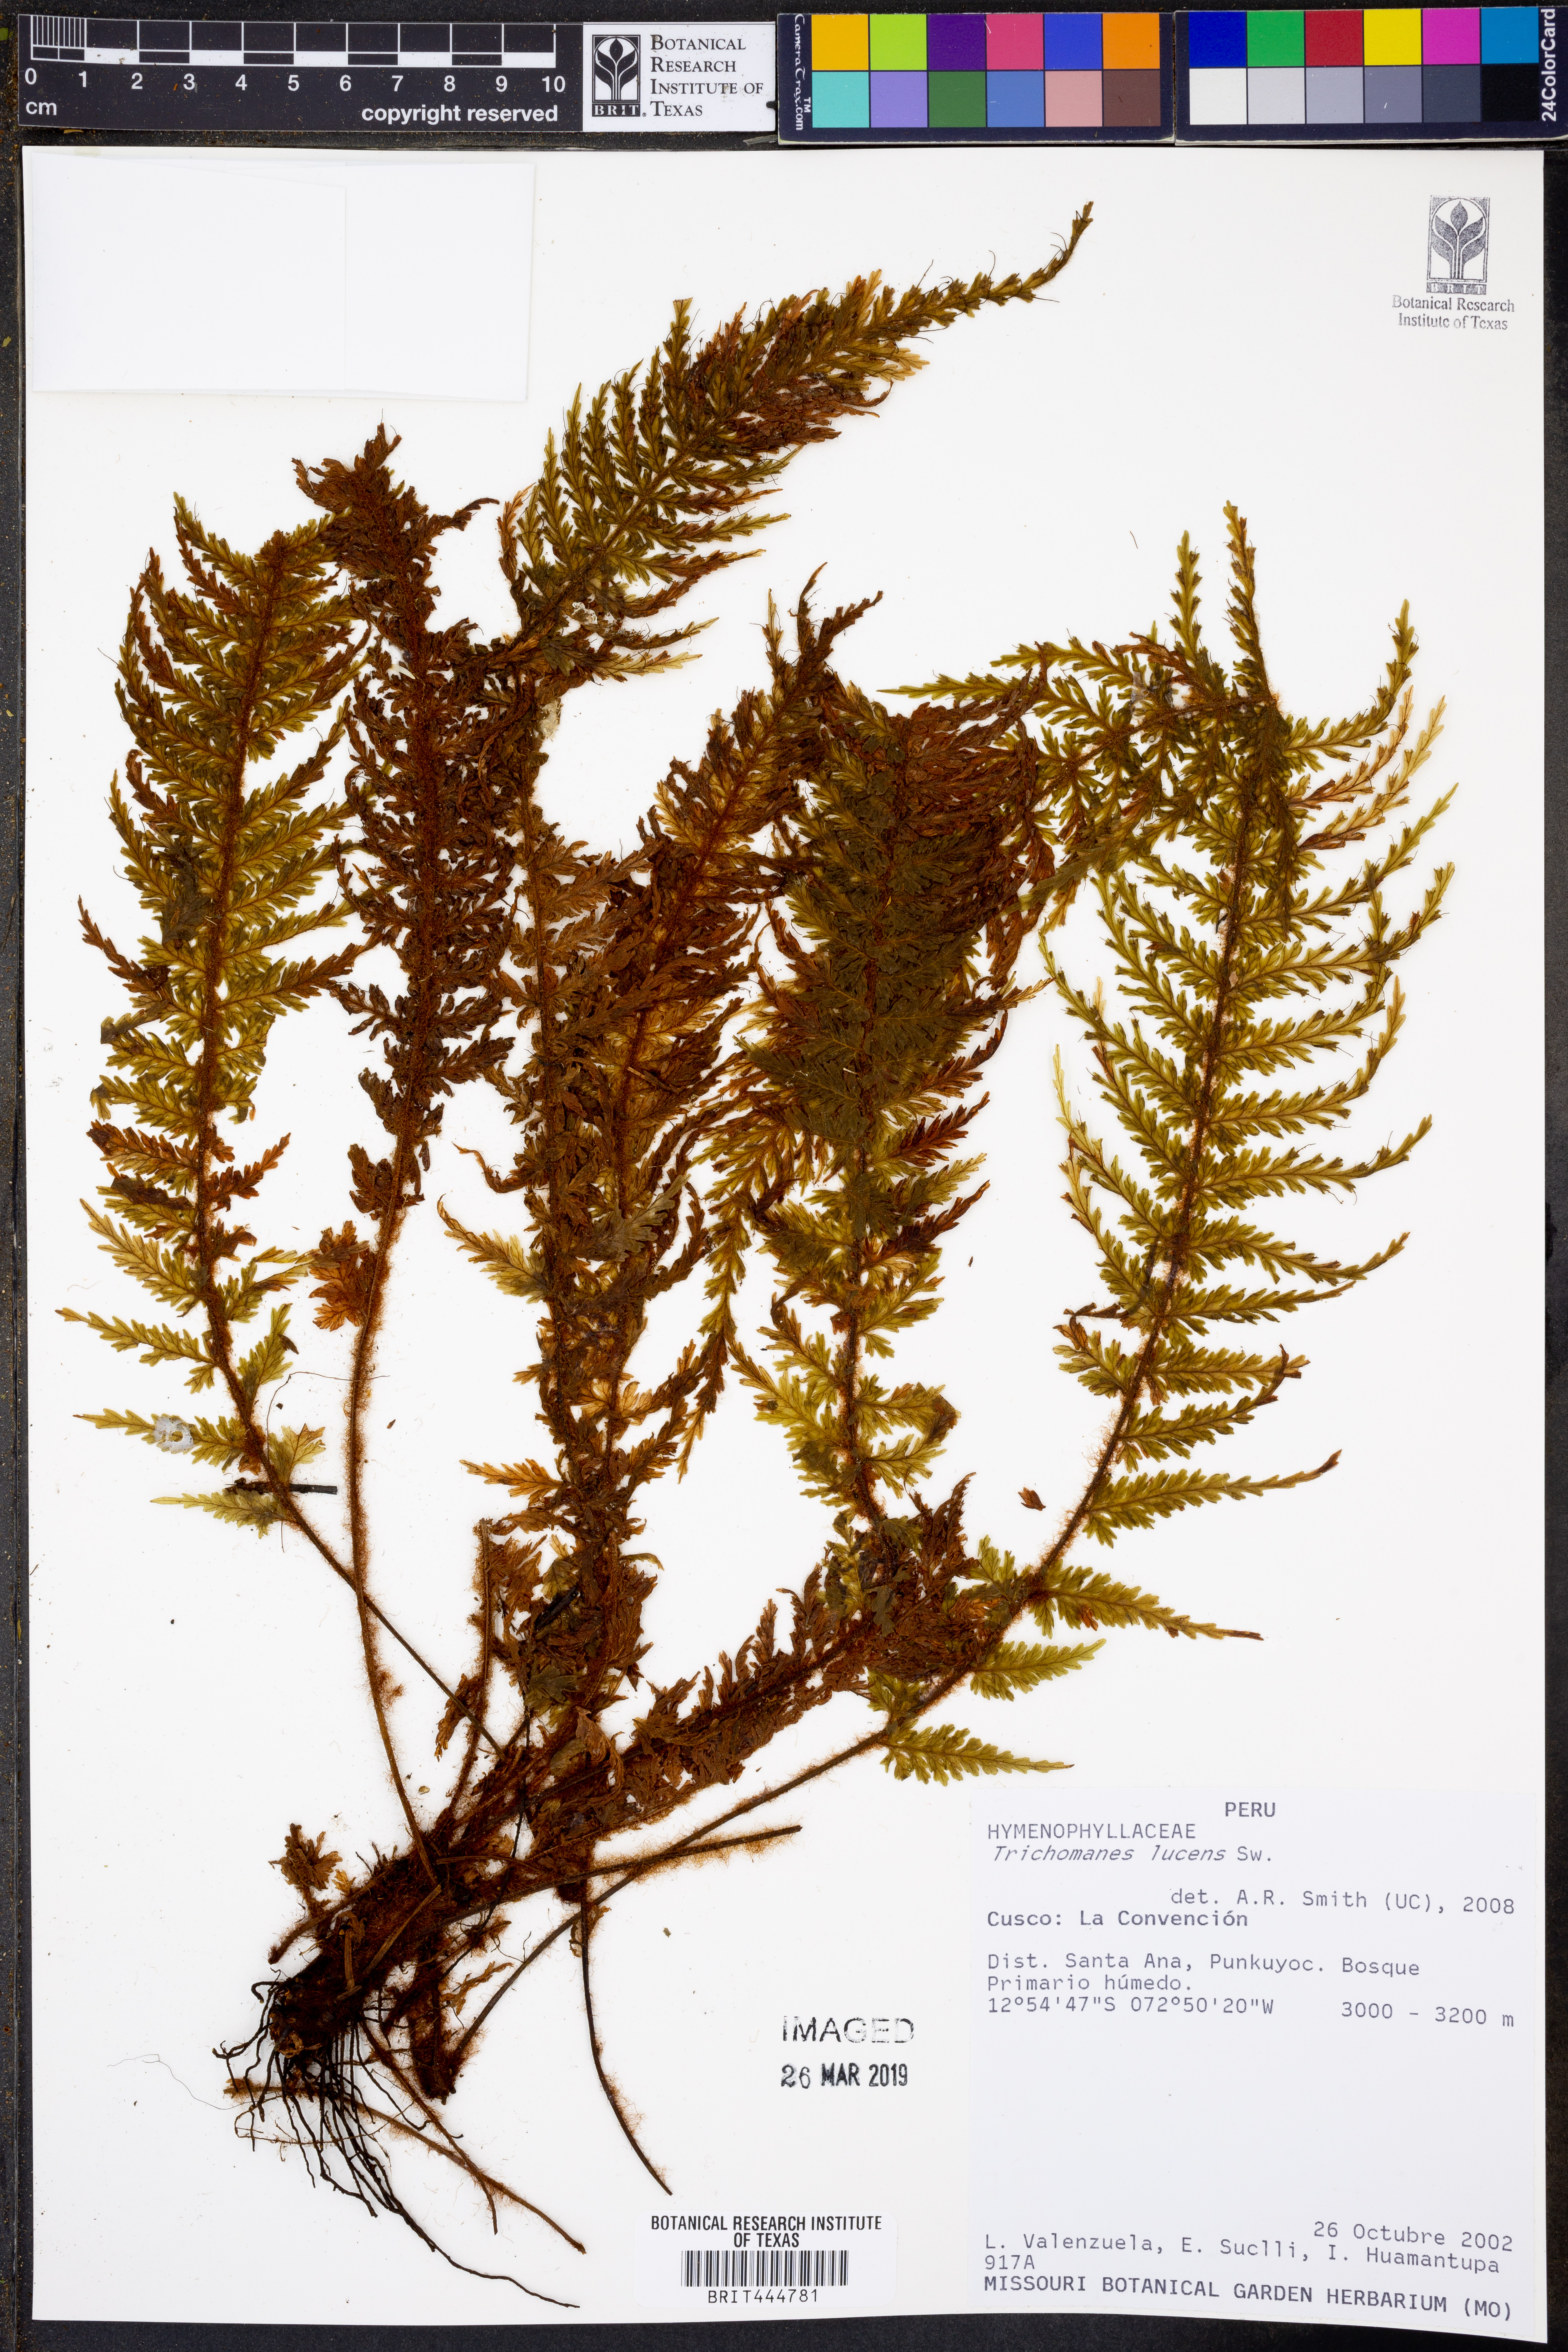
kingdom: Plantae
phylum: Tracheophyta
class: Polypodiopsida
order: Hymenophyllales
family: Hymenophyllaceae
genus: Trichomanes
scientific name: Trichomanes lucens
